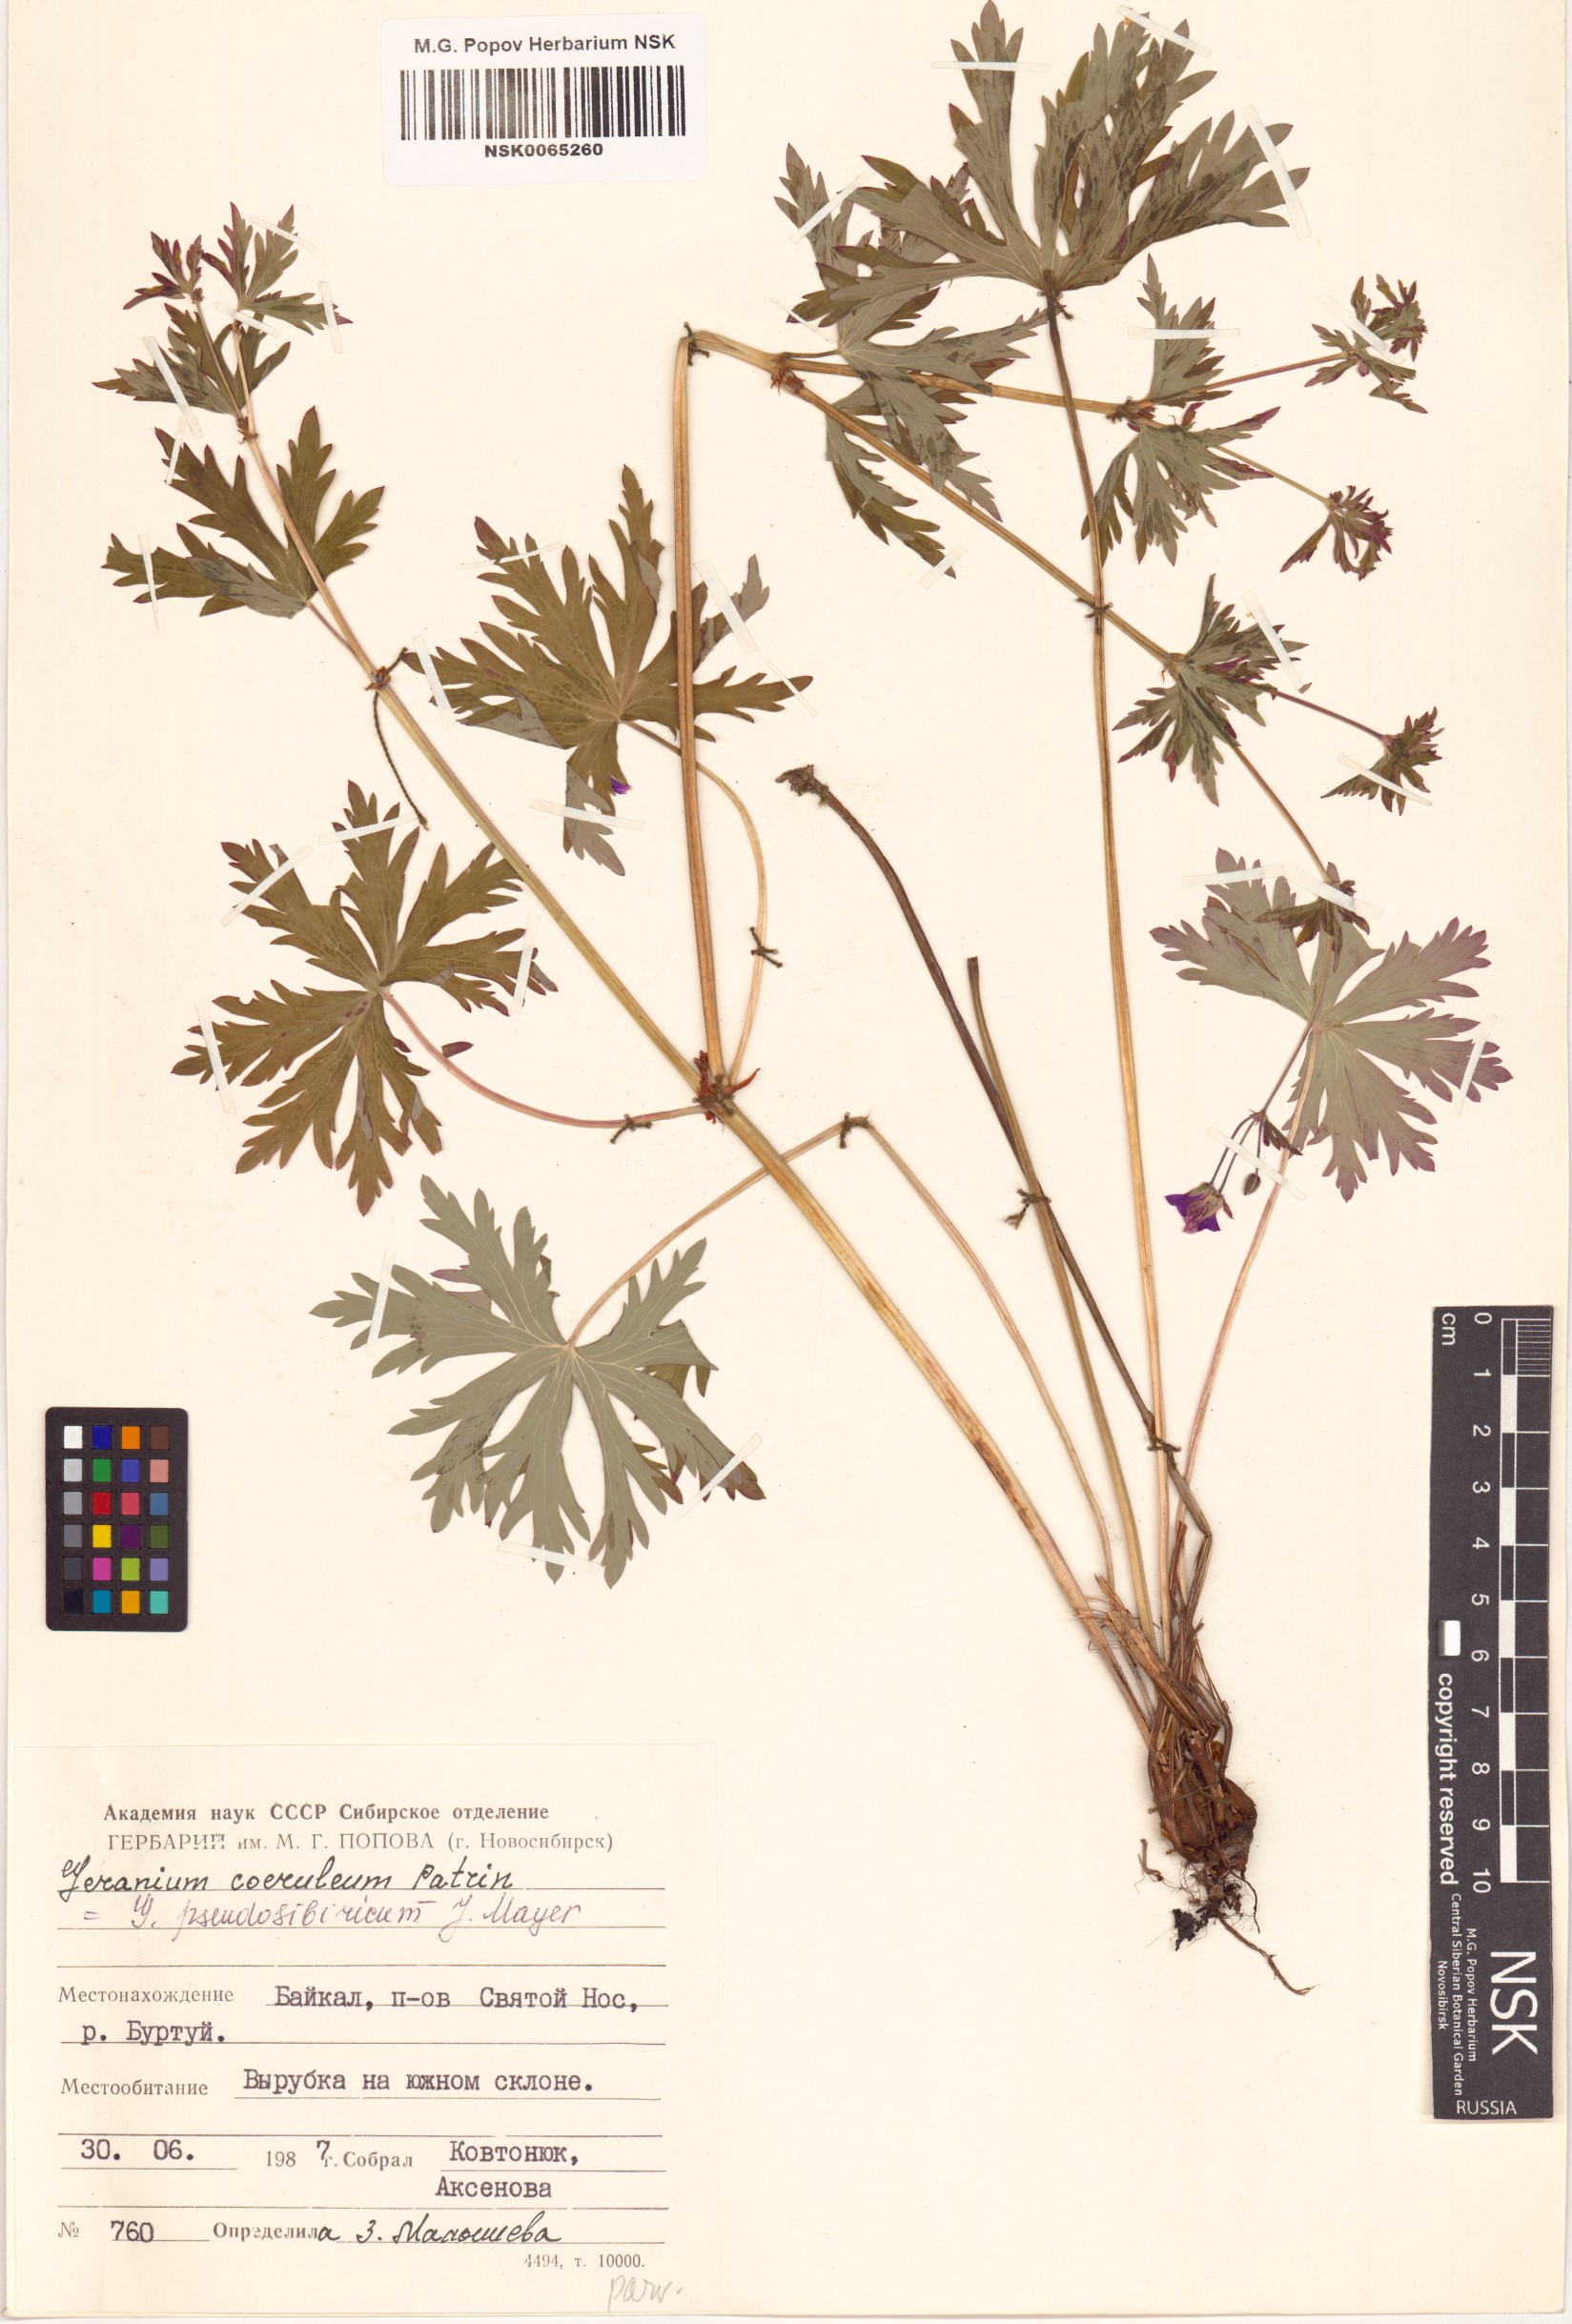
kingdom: Plantae
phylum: Tracheophyta
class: Magnoliopsida
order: Geraniales
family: Geraniaceae
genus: Geranium
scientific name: Geranium pseudosibiricum
